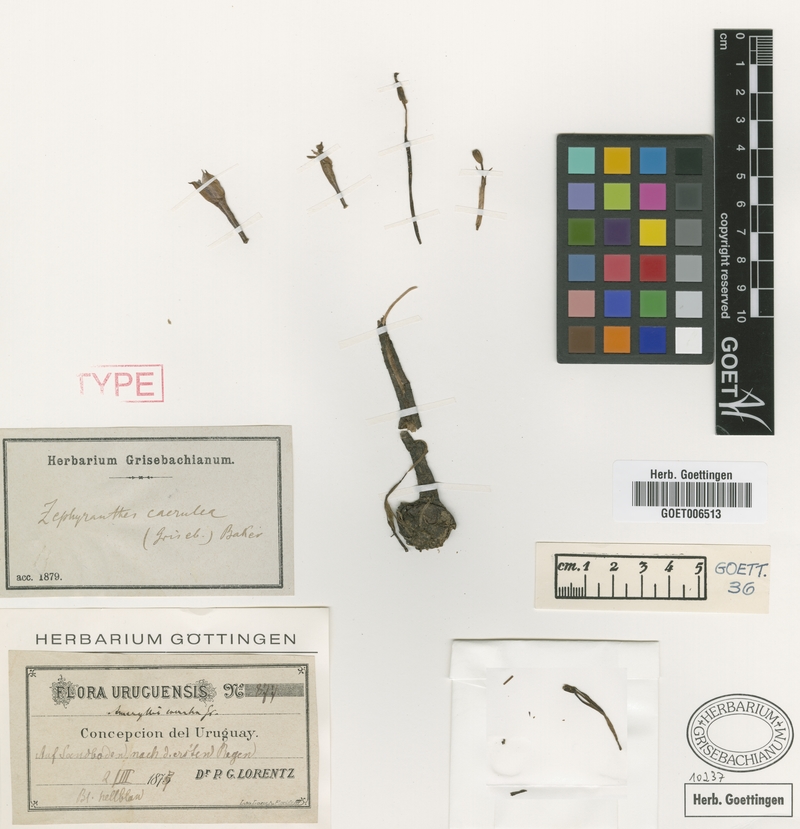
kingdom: Plantae
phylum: Tracheophyta
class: Liliopsida
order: Asparagales
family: Amaryllidaceae
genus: Zephyranthes
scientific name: Zephyranthes caerulea
